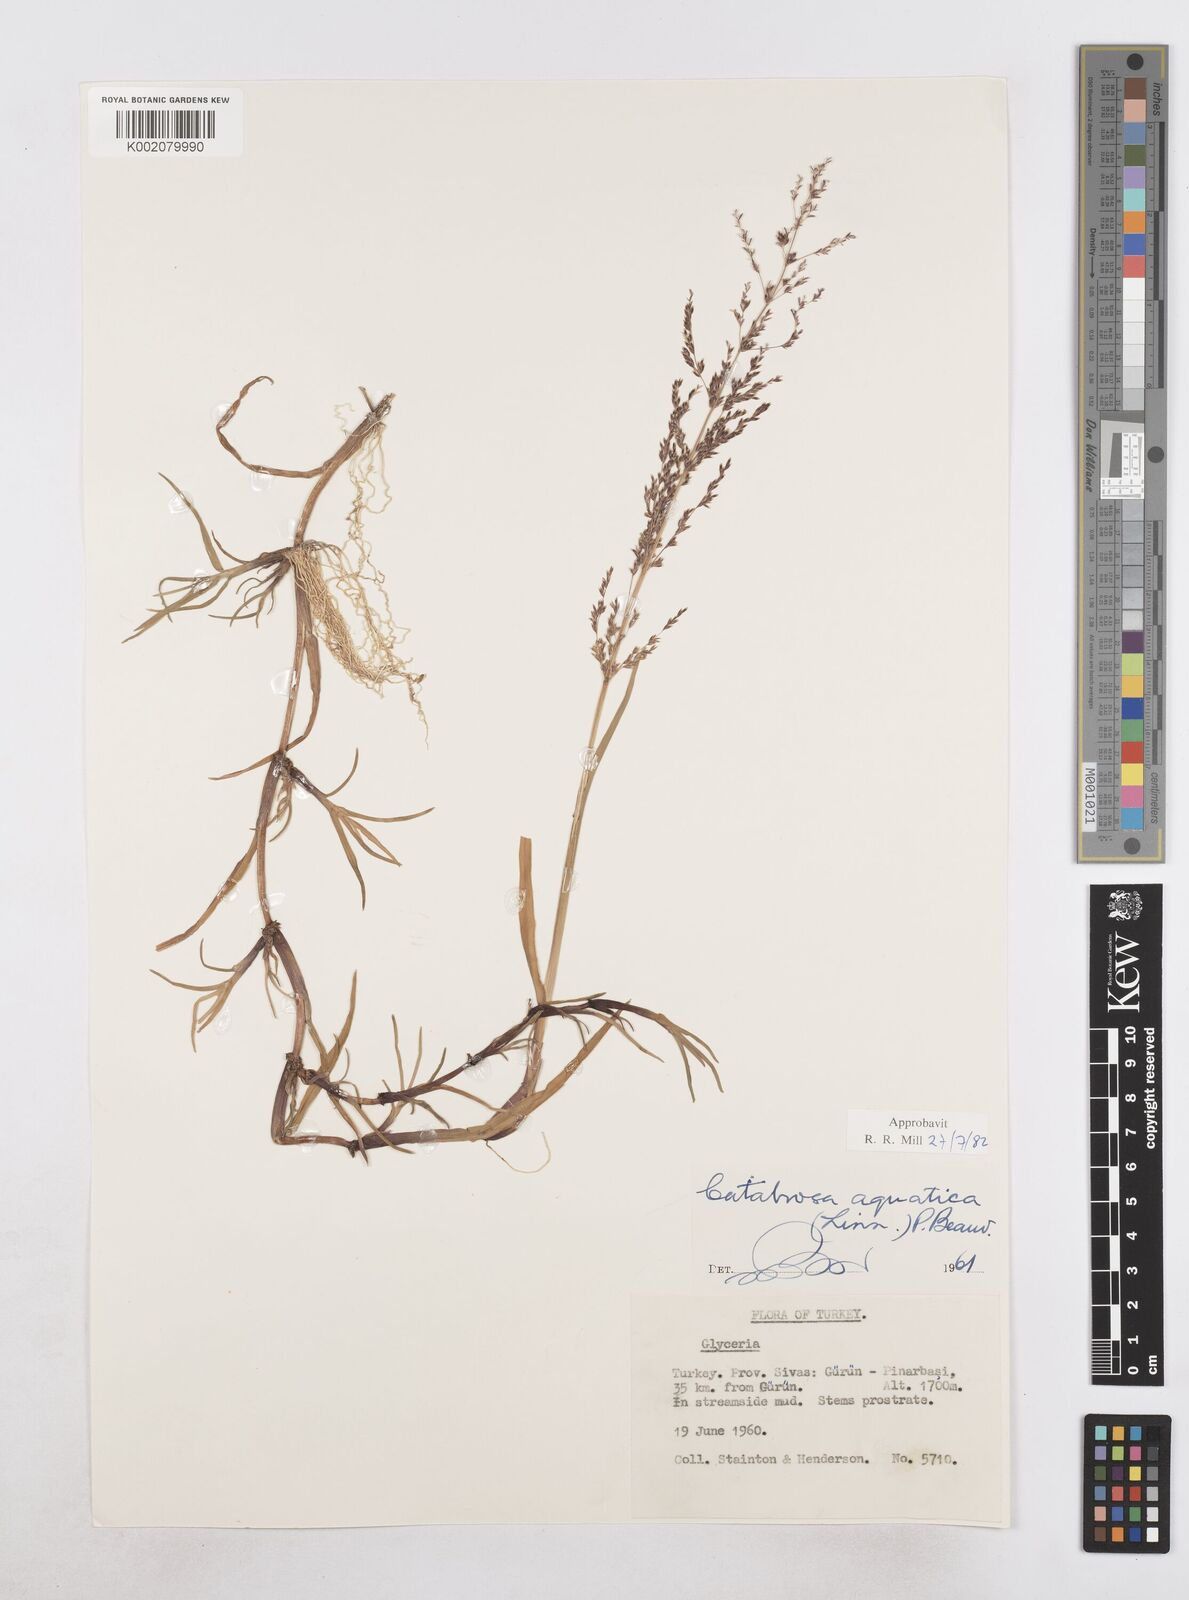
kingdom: Plantae
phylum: Tracheophyta
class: Liliopsida
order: Poales
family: Poaceae
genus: Catabrosa
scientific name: Catabrosa aquatica
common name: Whorl-grass
